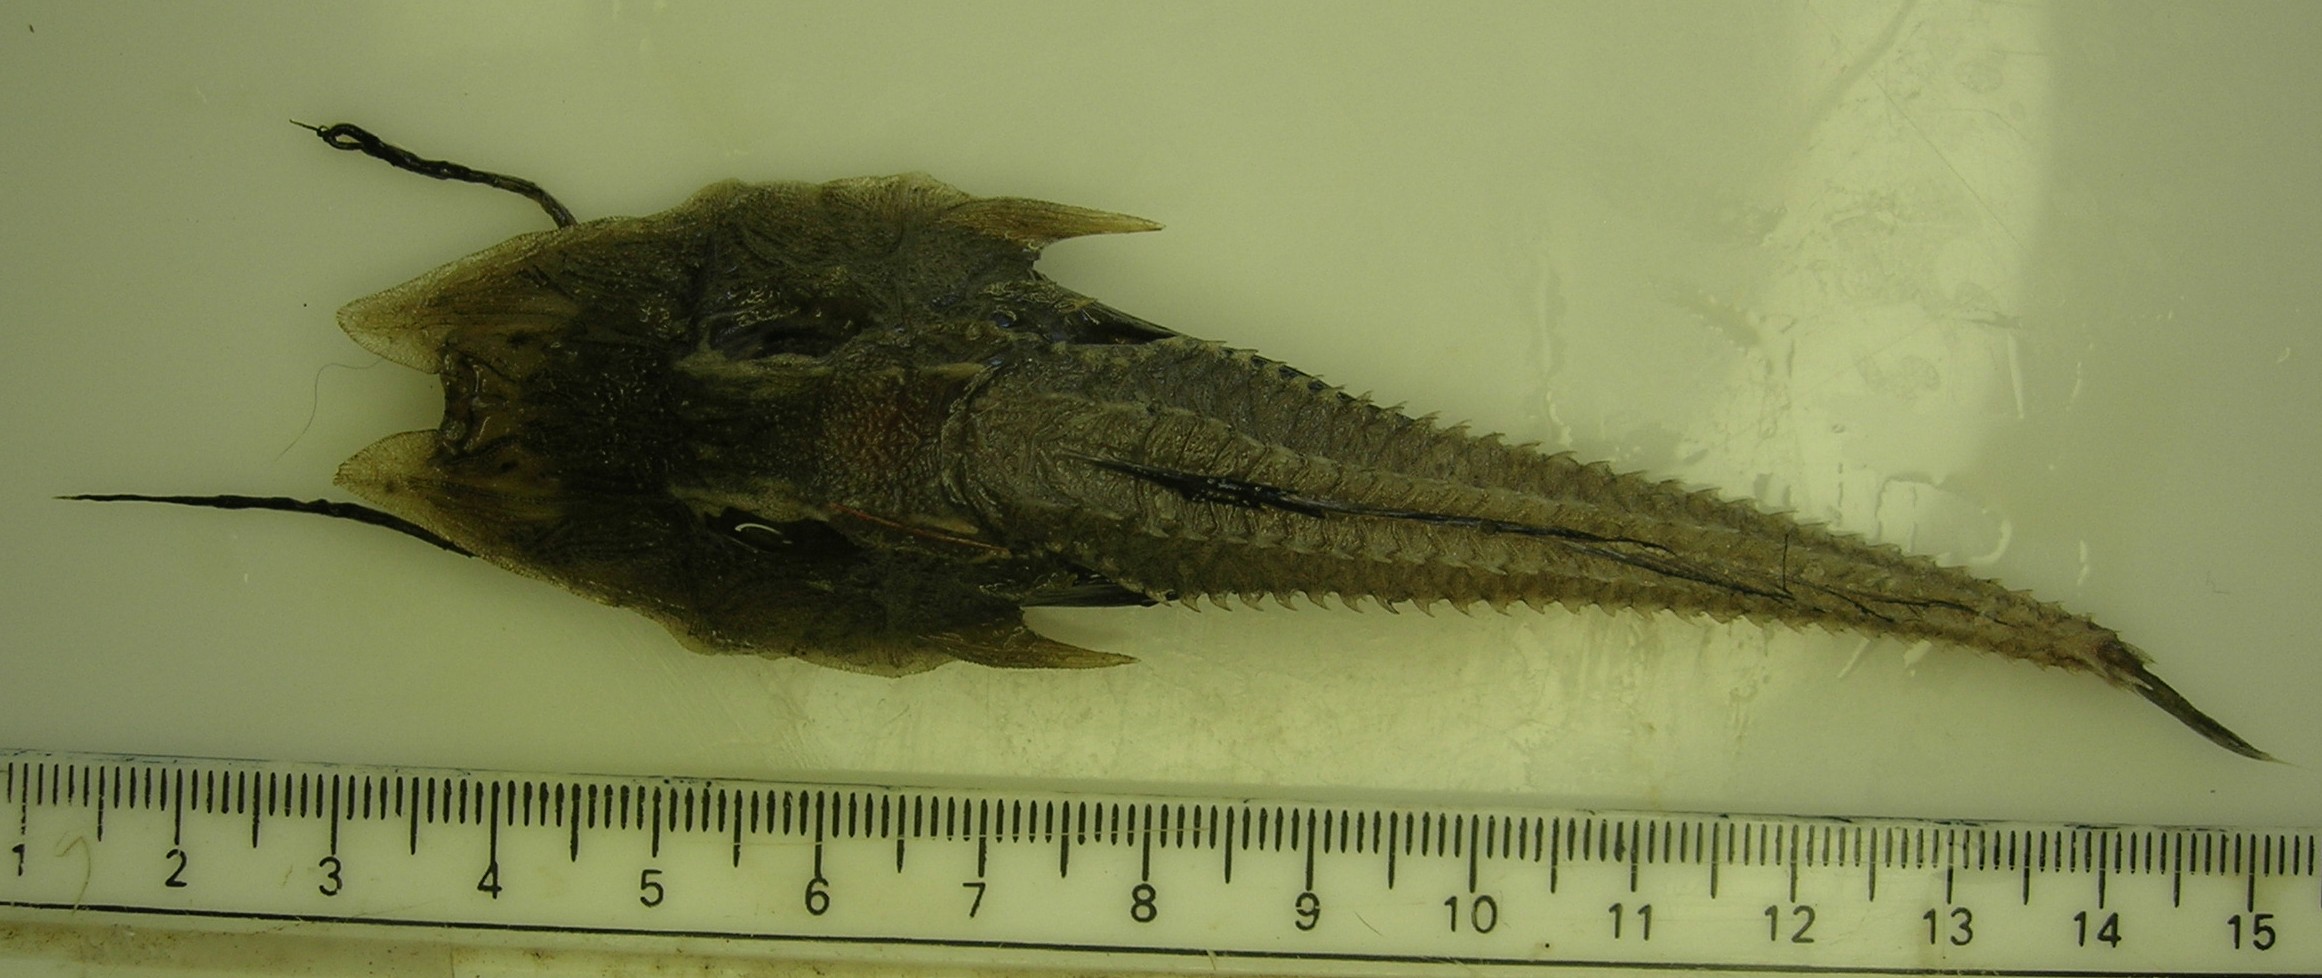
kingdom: Animalia
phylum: Chordata
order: Scorpaeniformes
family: Peristediidae
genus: Scalicus
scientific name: Scalicus investigatoris
